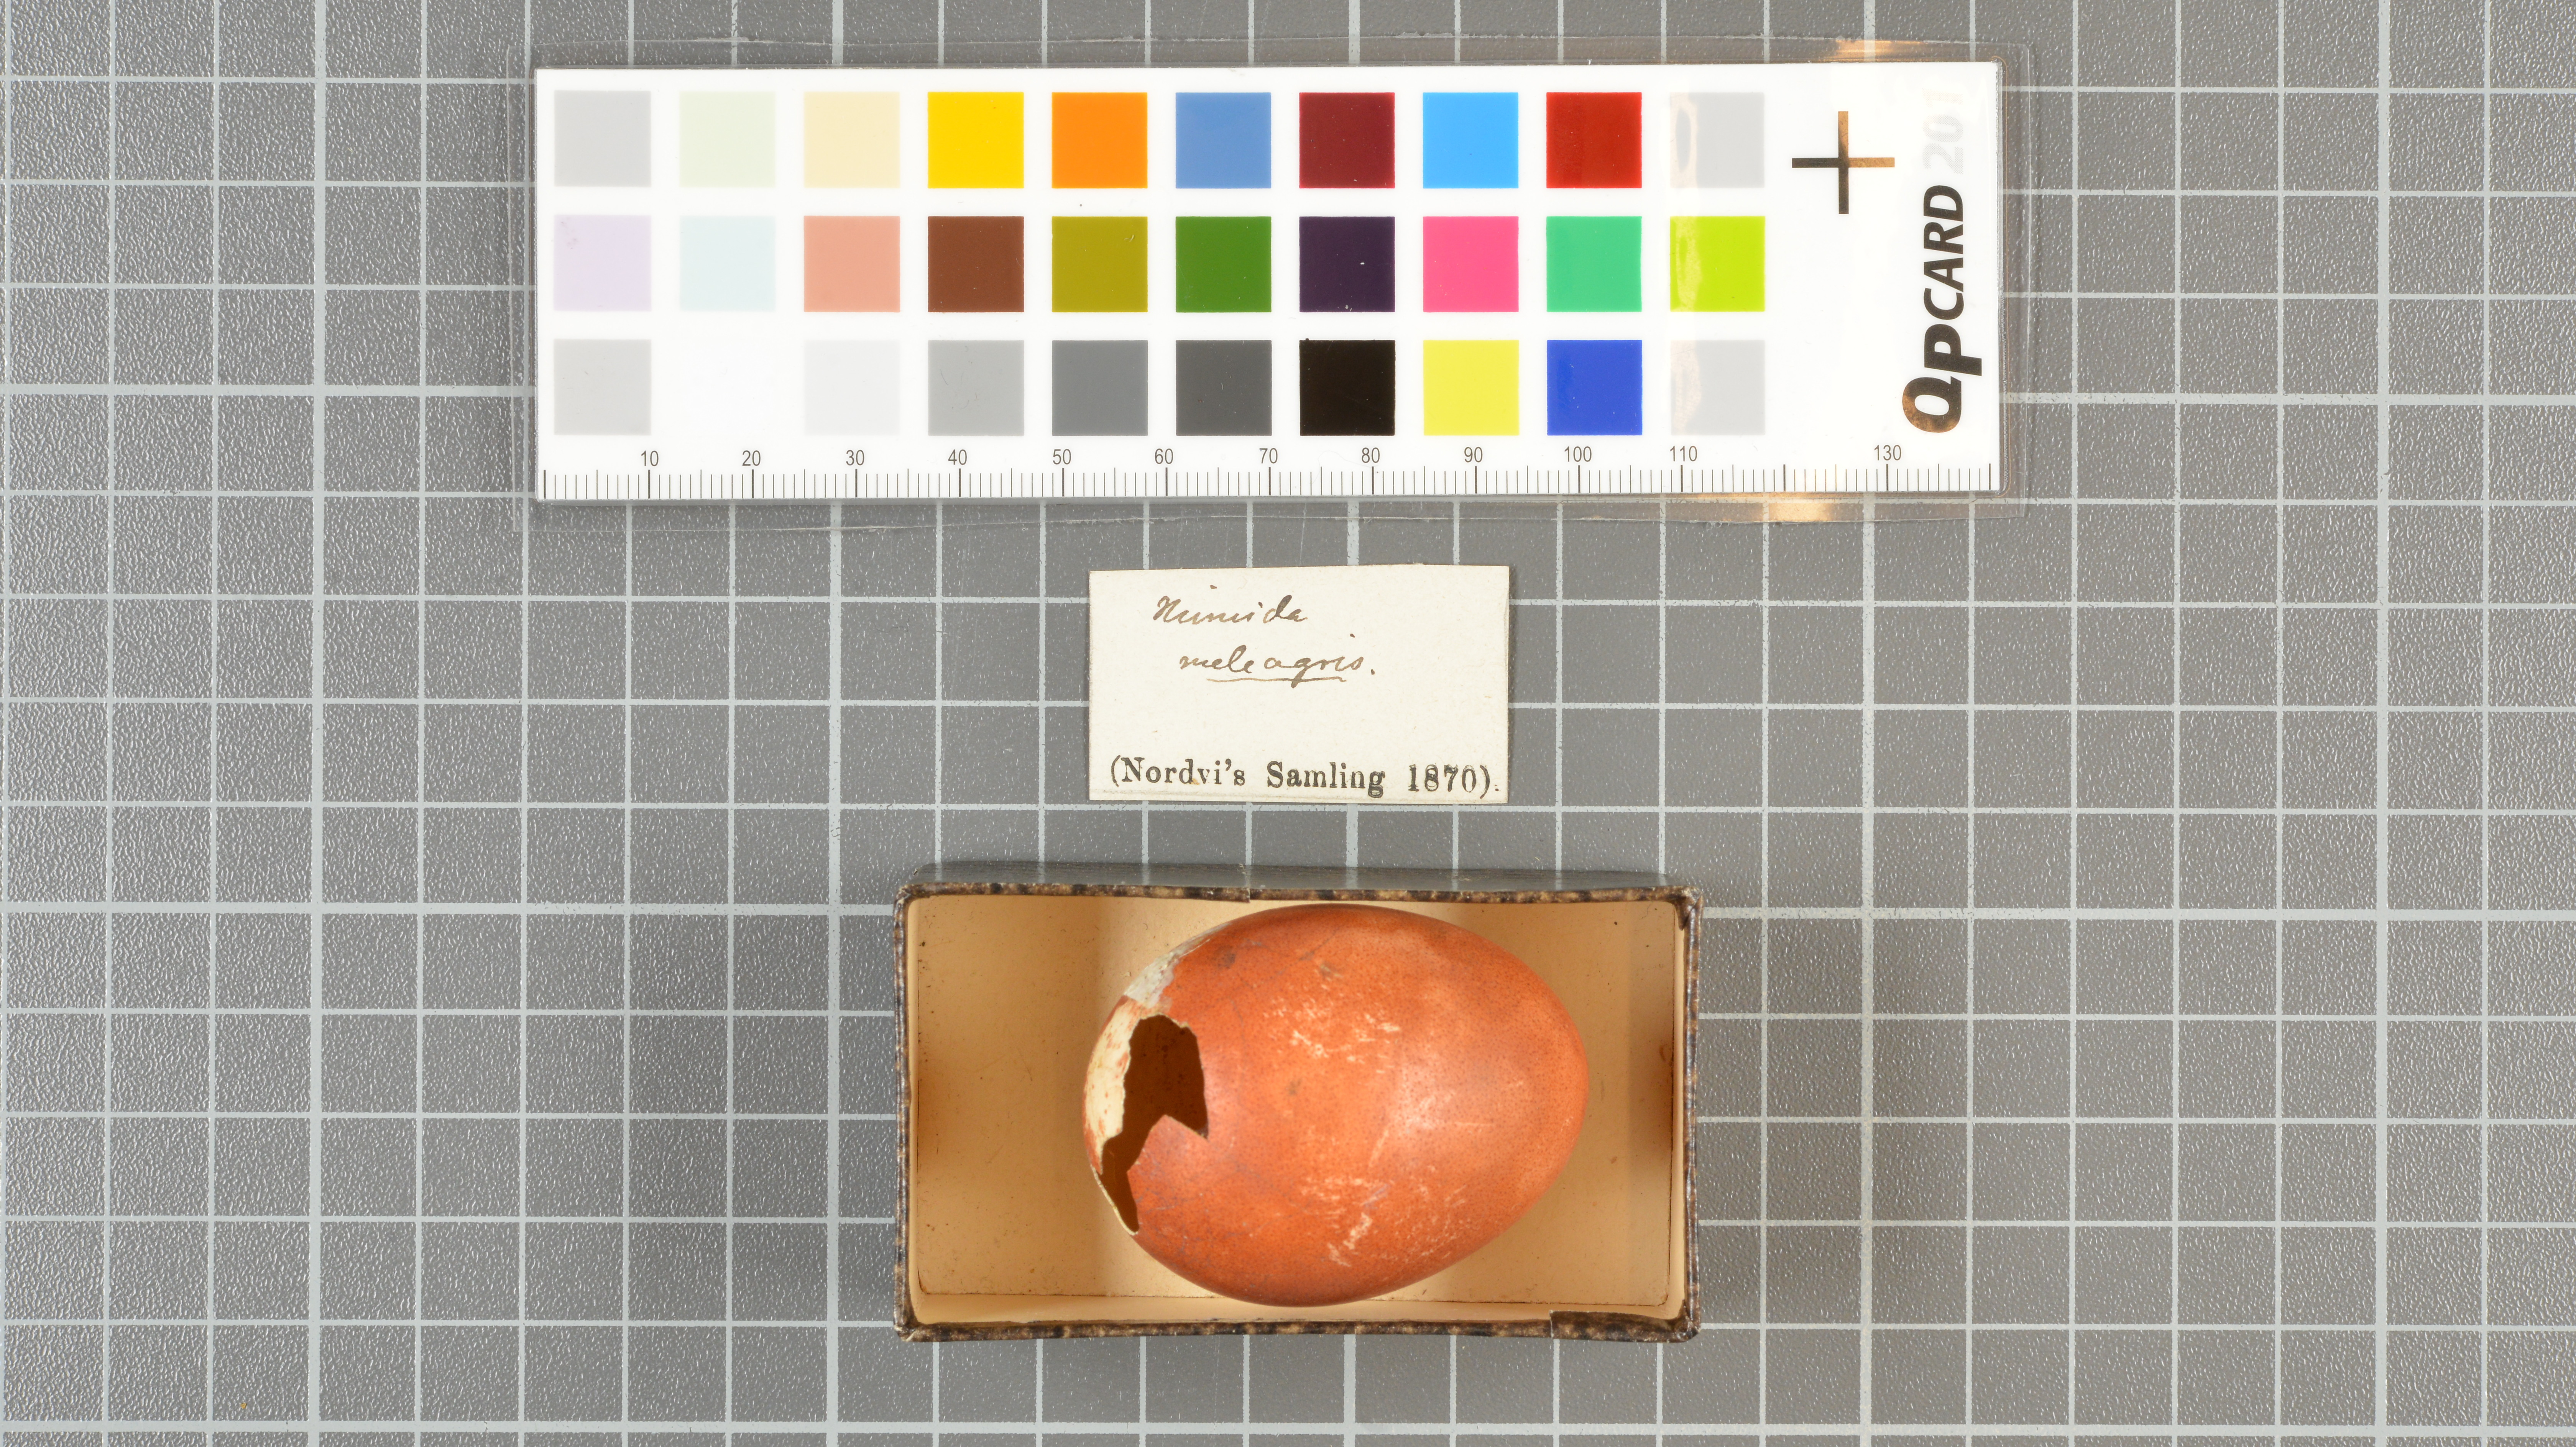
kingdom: Animalia
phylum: Chordata
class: Aves
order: Galliformes
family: Numididae
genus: Numida
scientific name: Numida meleagris
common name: Helmeted guineafowl
